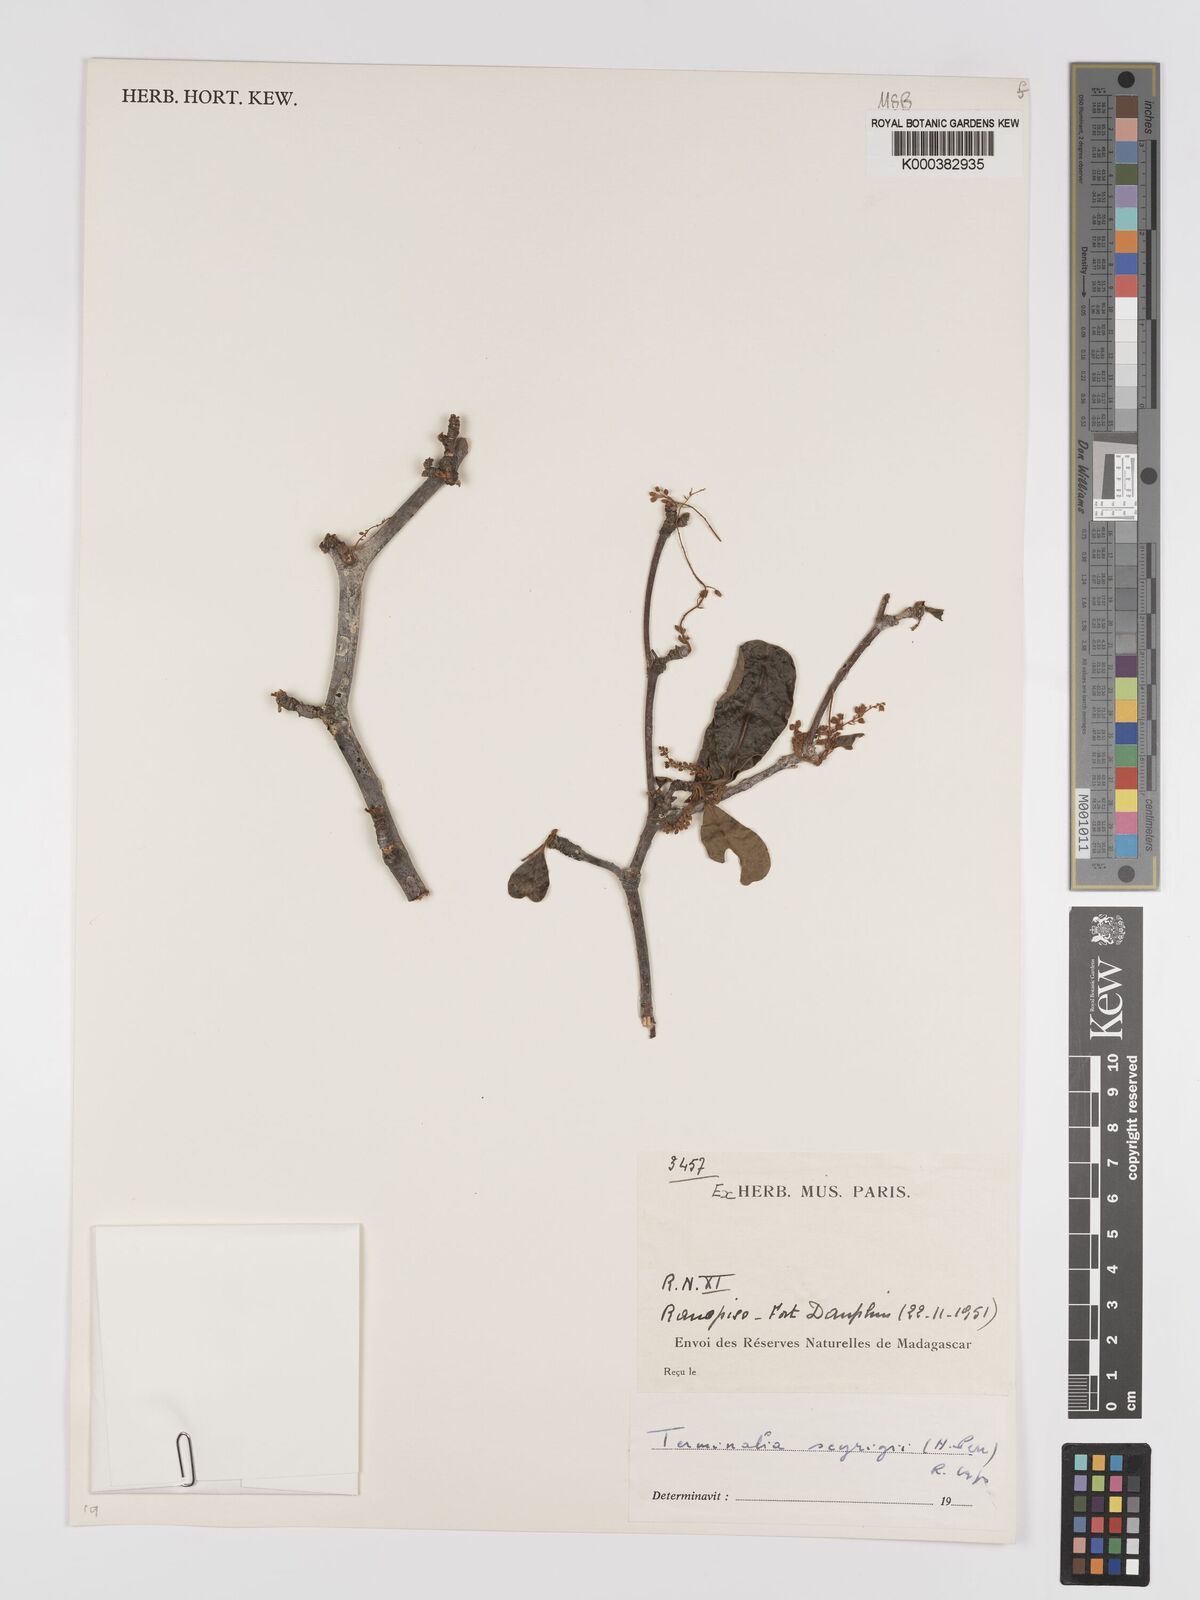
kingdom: Plantae
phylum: Tracheophyta
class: Magnoliopsida
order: Myrtales
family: Combretaceae
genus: Terminalia
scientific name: Terminalia seyrigii
